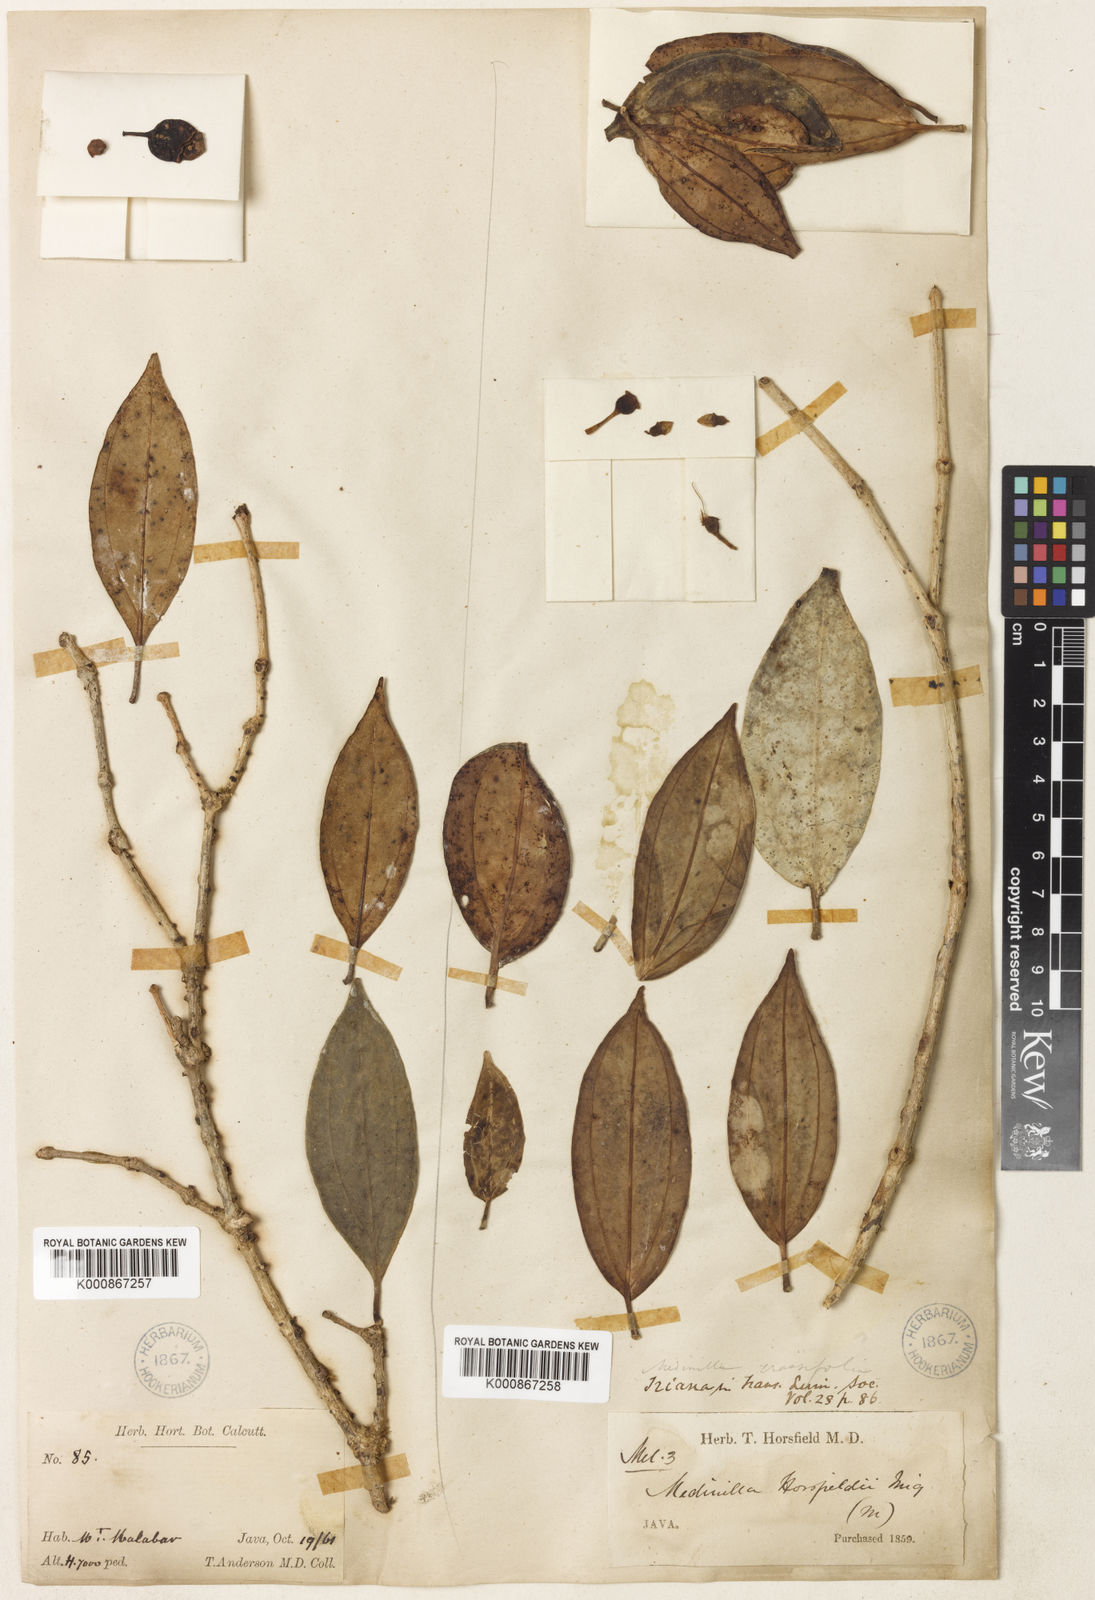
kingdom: Plantae
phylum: Tracheophyta
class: Magnoliopsida
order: Myrtales
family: Melastomataceae
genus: Medinilla
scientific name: Medinilla laurifolia
